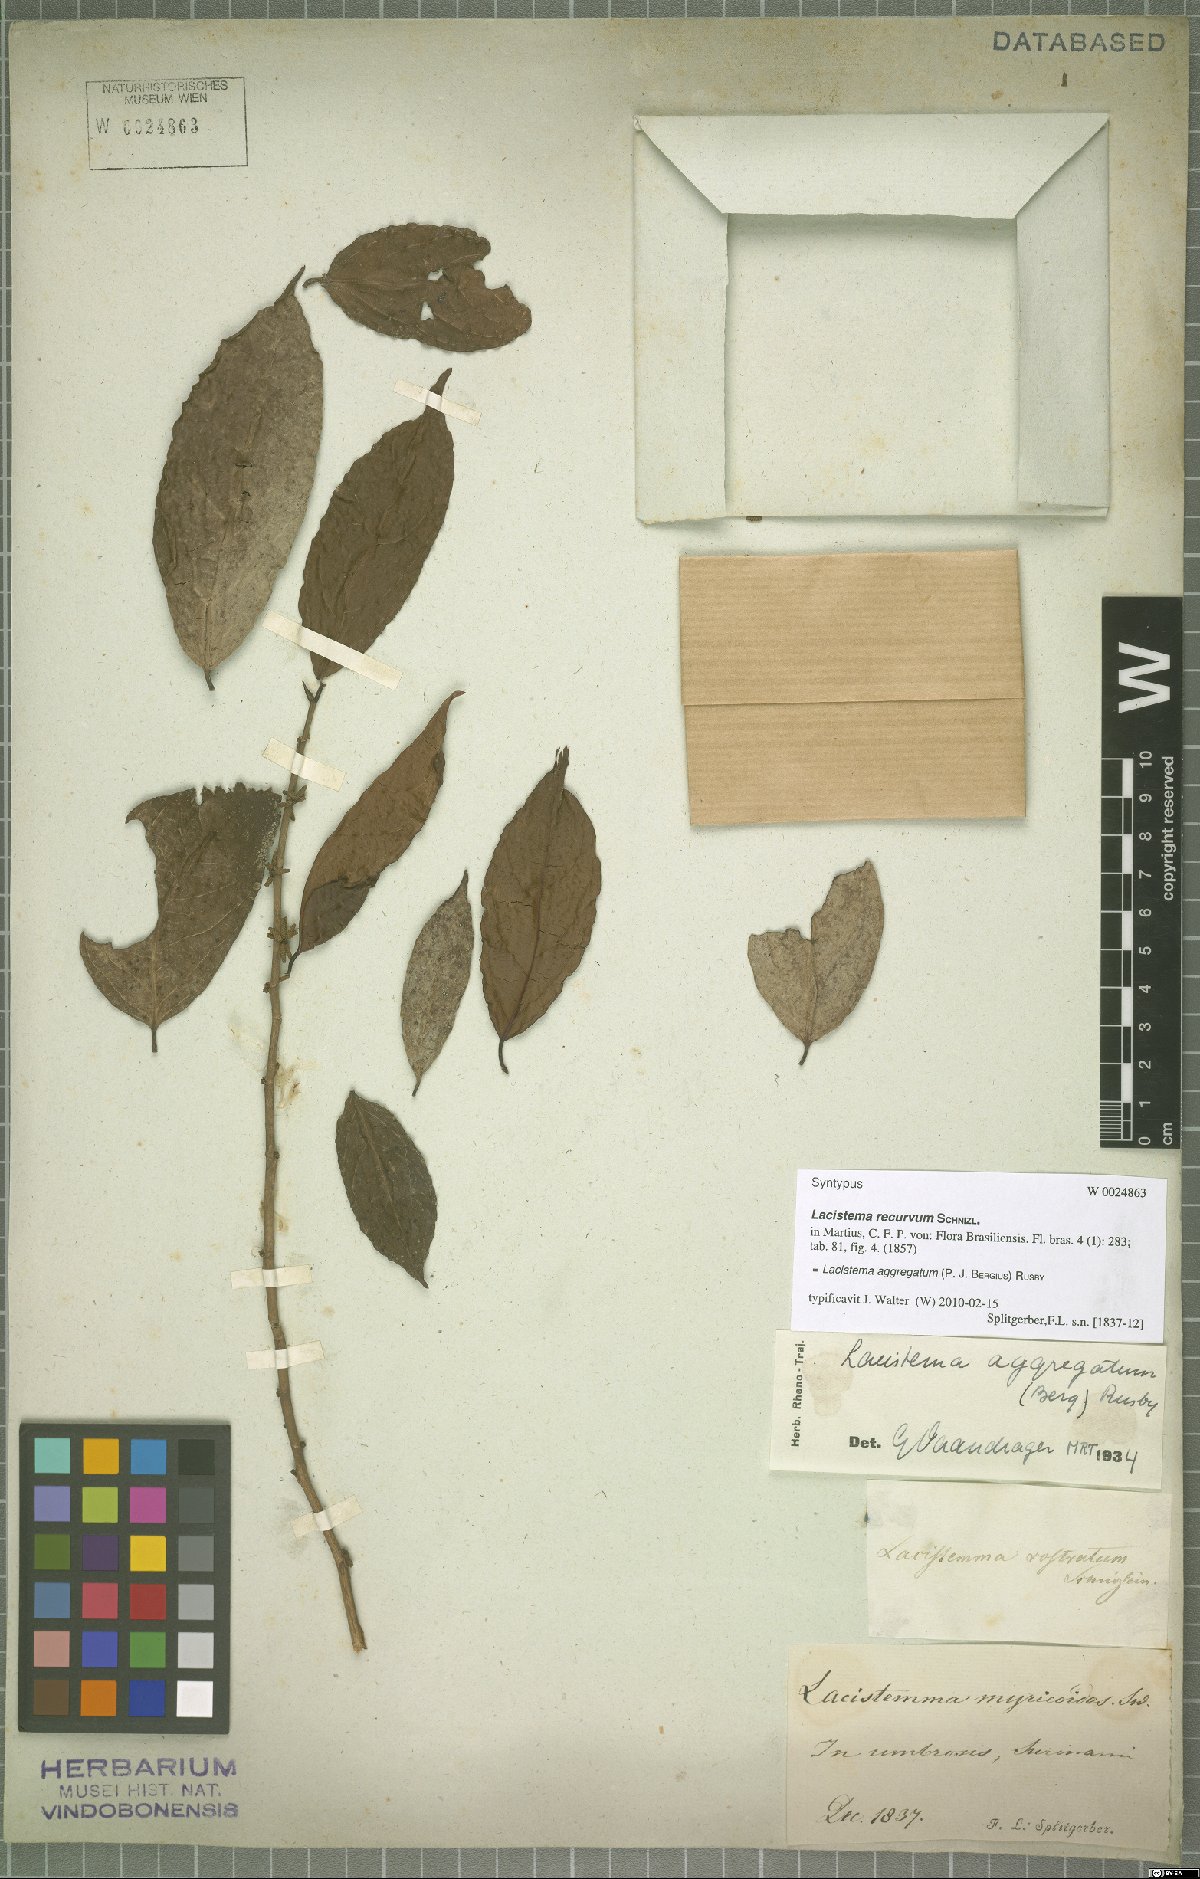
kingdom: Plantae
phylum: Tracheophyta
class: Magnoliopsida
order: Malpighiales
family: Lacistemataceae
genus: Lacistema
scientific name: Lacistema aggregatum
